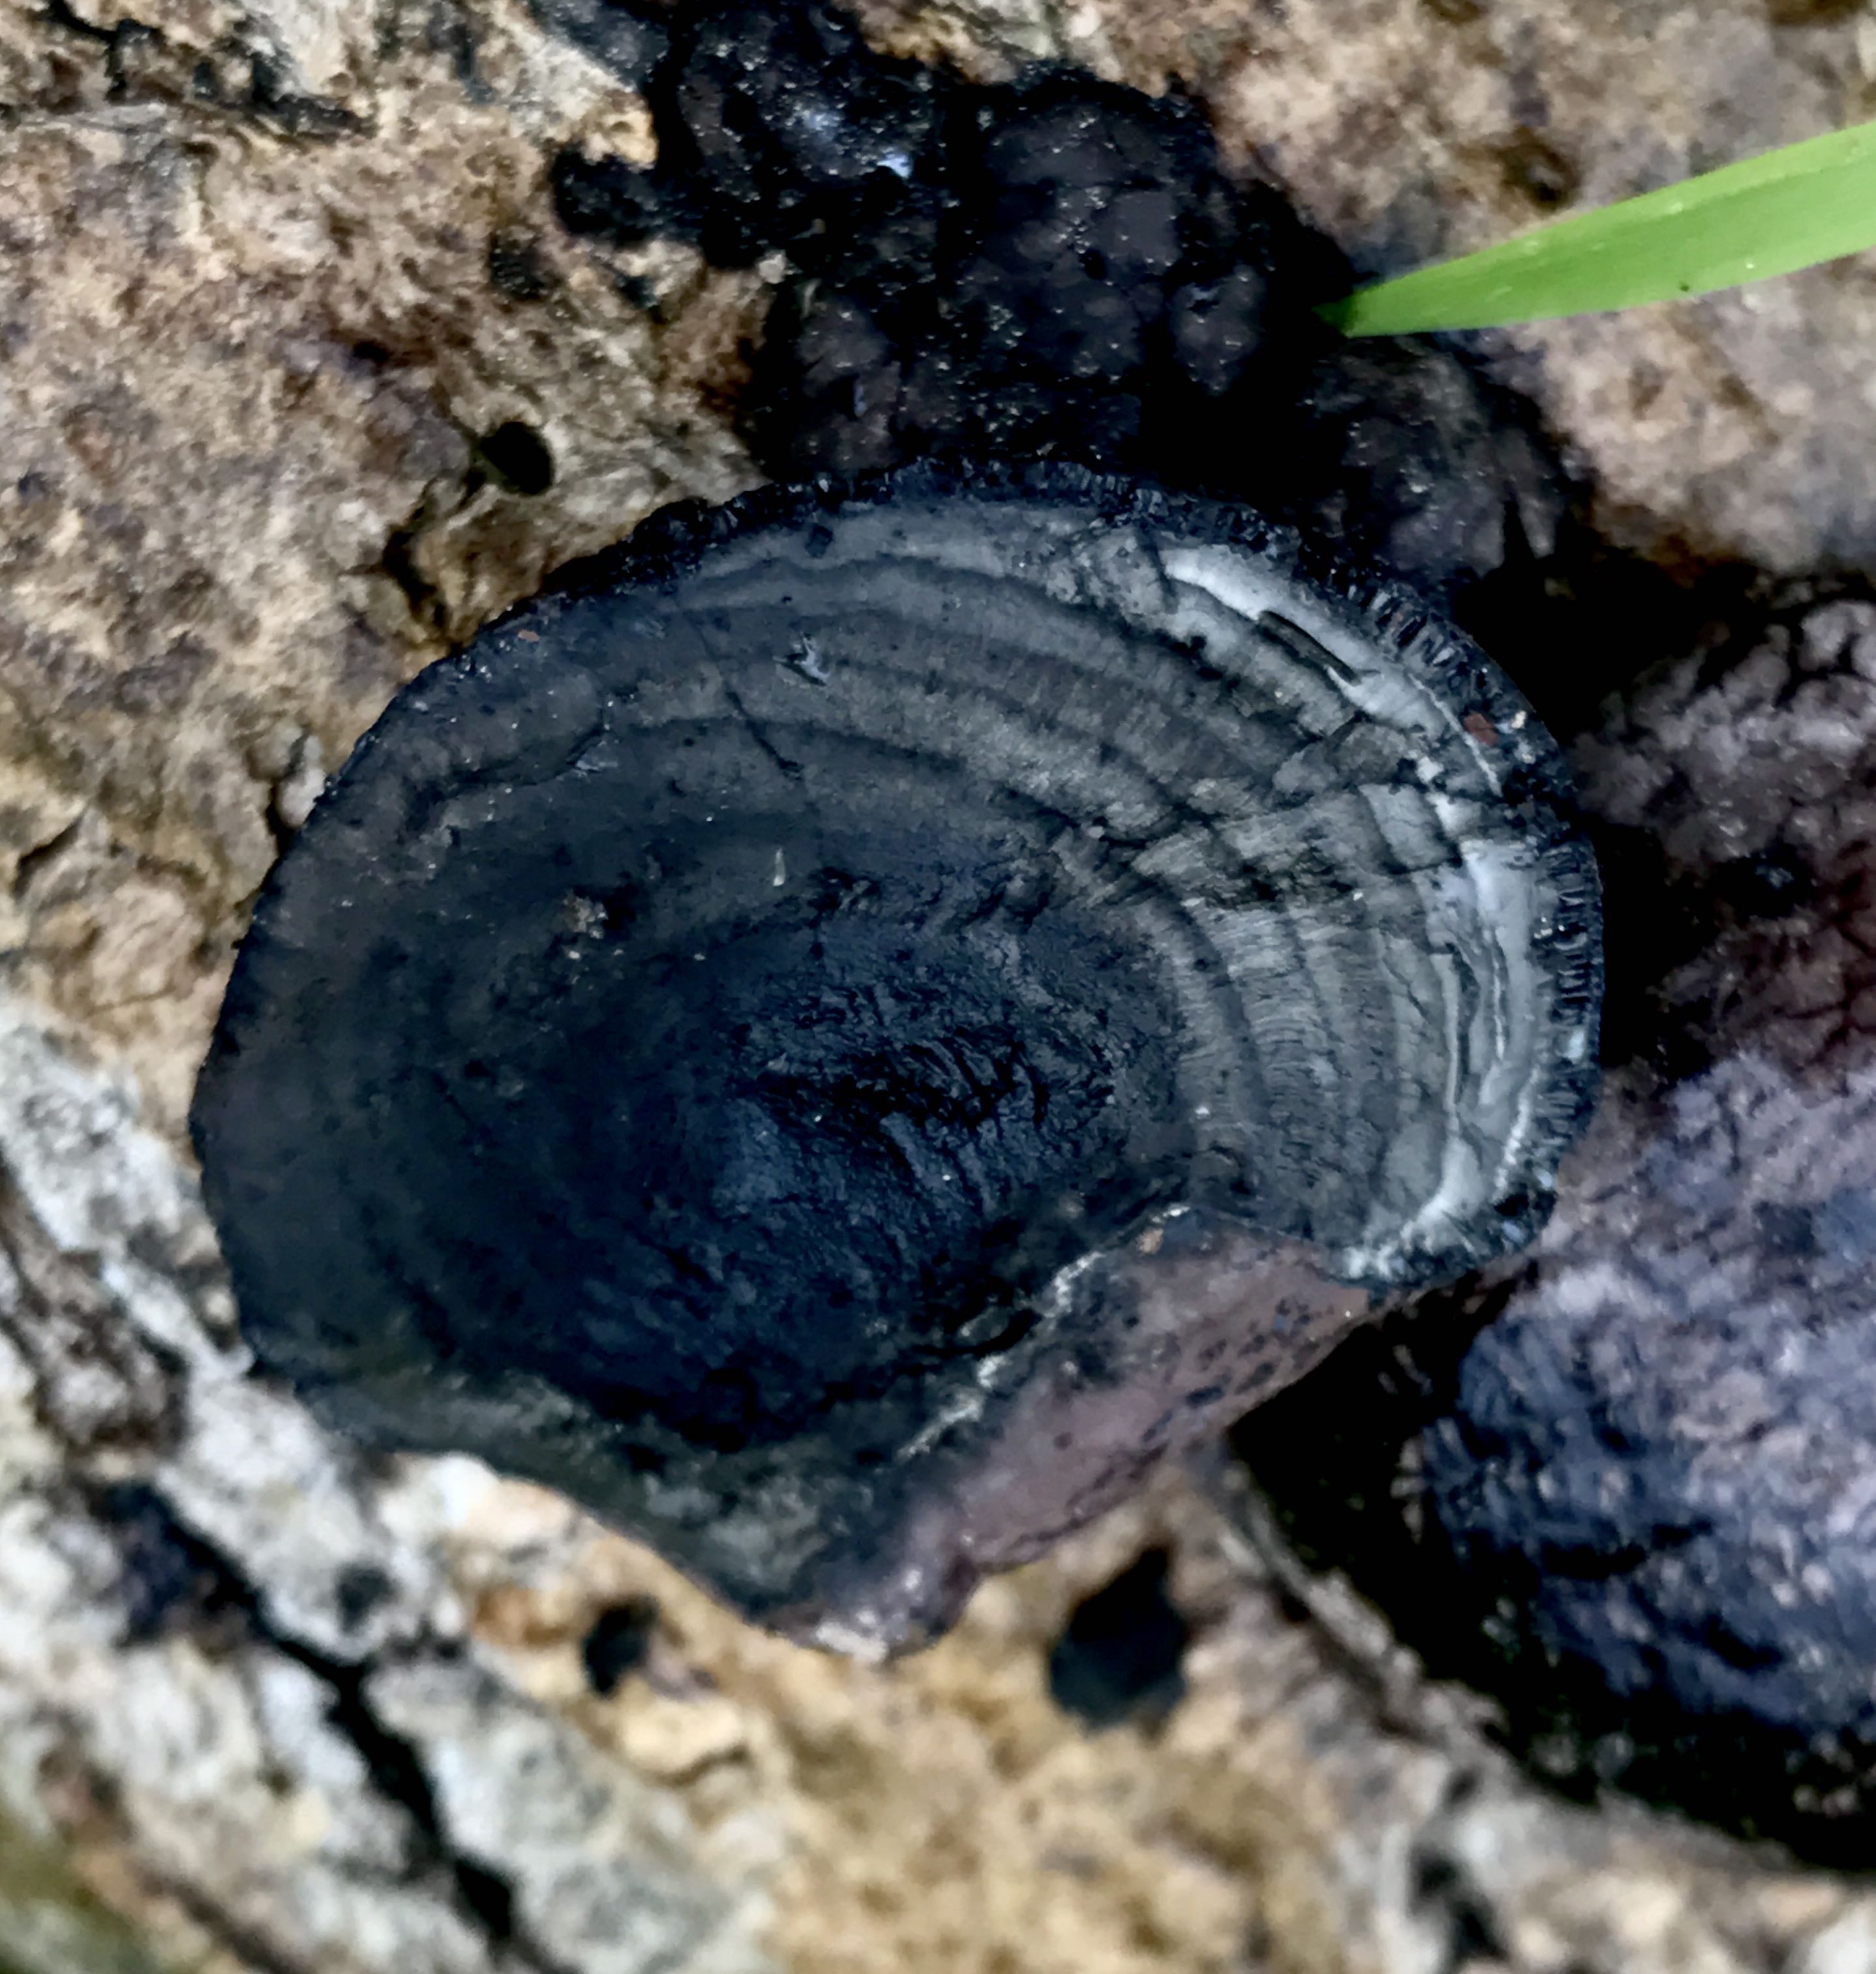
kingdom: Fungi
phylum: Ascomycota
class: Sordariomycetes
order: Xylariales
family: Hypoxylaceae
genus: Daldinia
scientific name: Daldinia concentrica
